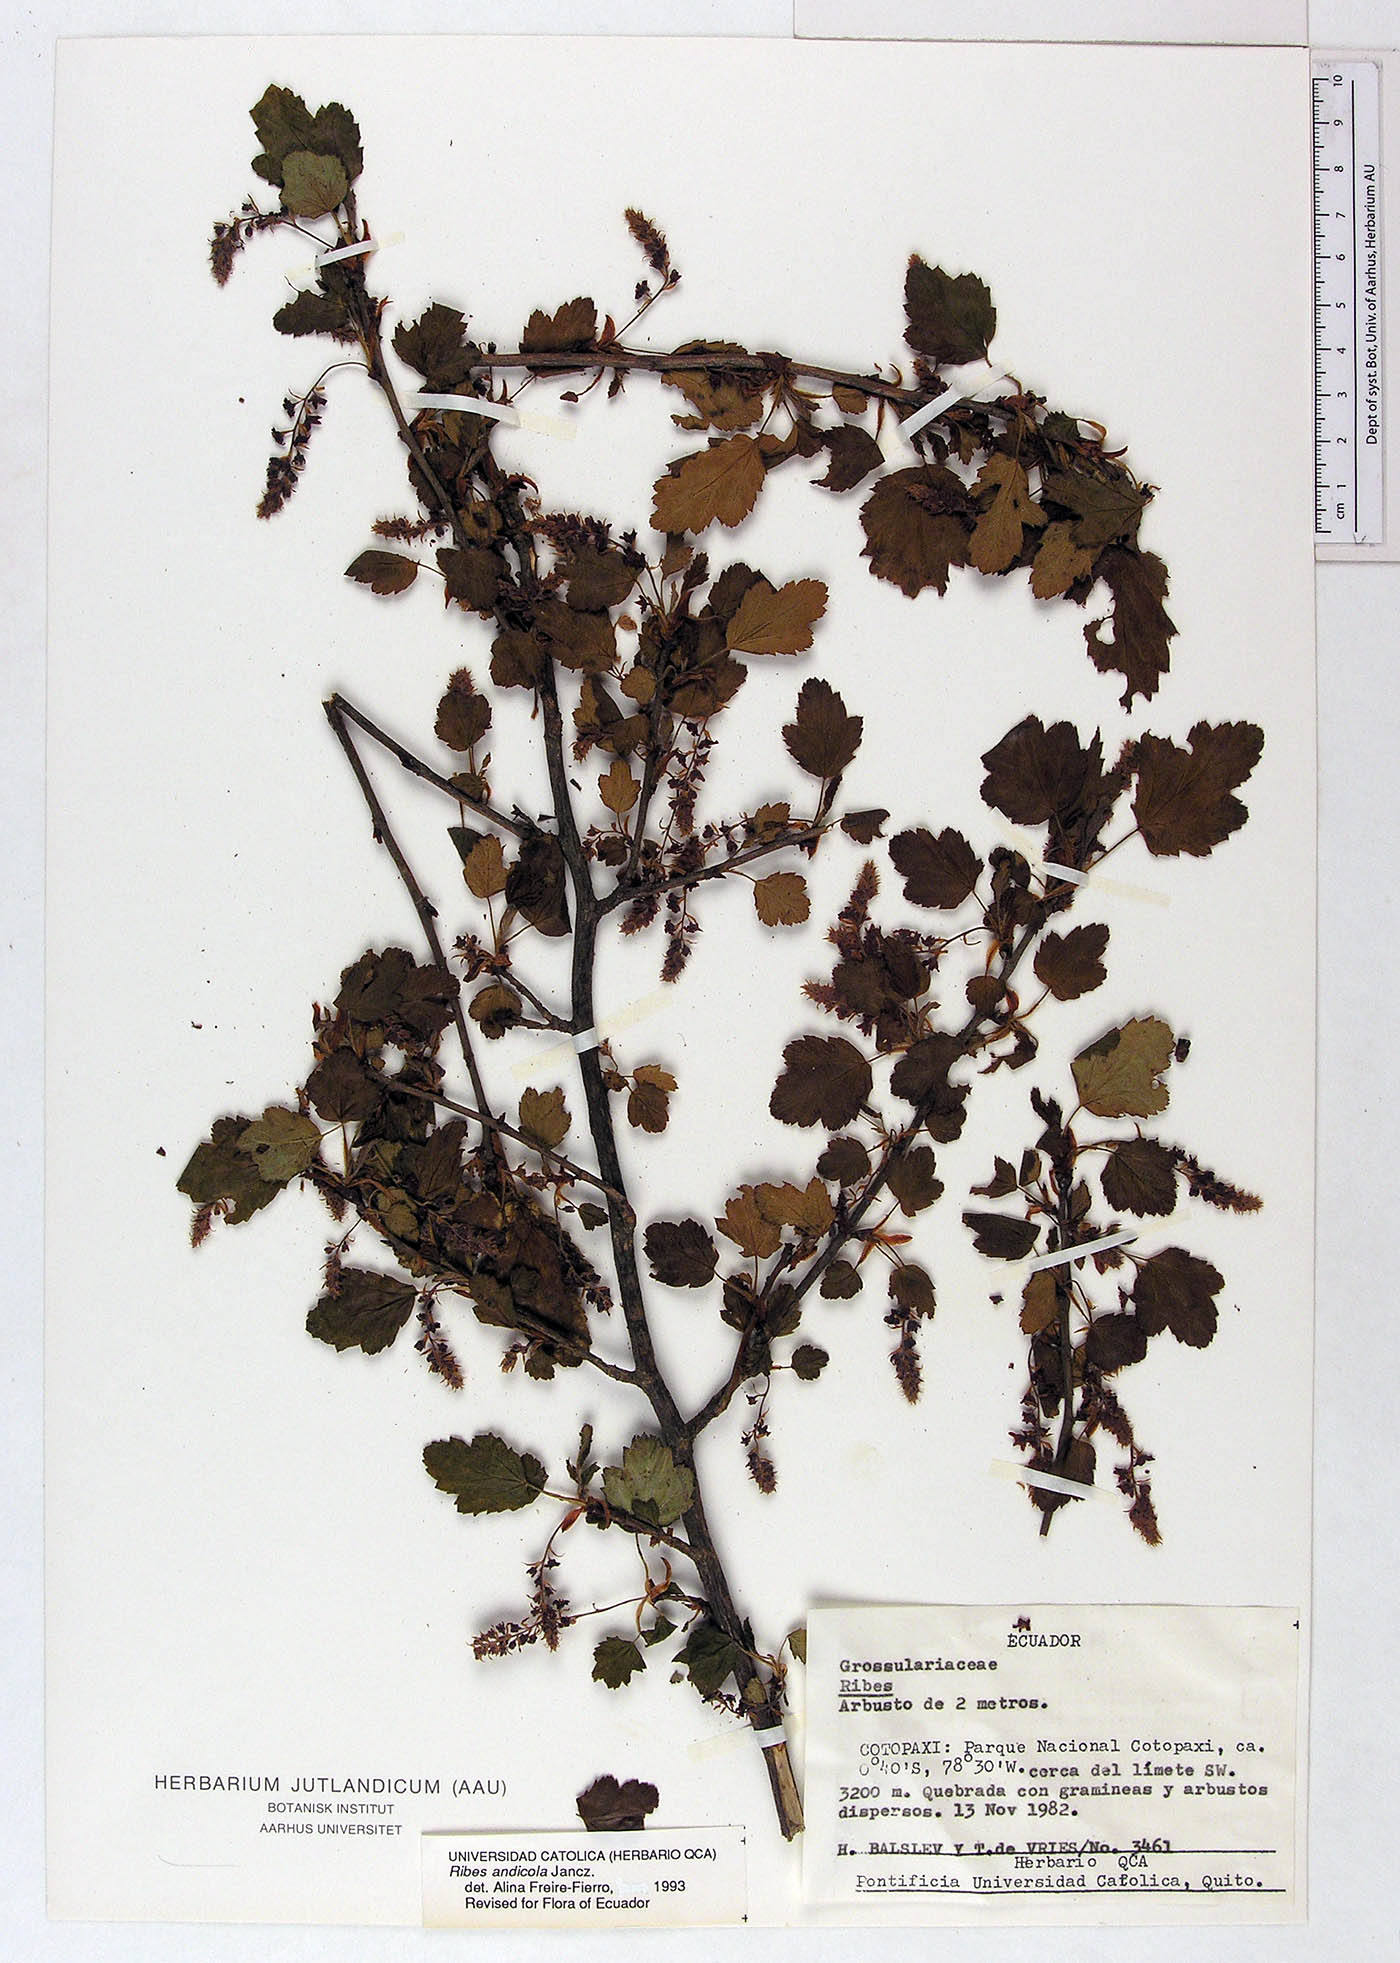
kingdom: Plantae
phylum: Tracheophyta
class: Magnoliopsida
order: Saxifragales
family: Grossulariaceae
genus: Ribes
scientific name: Ribes andicola
